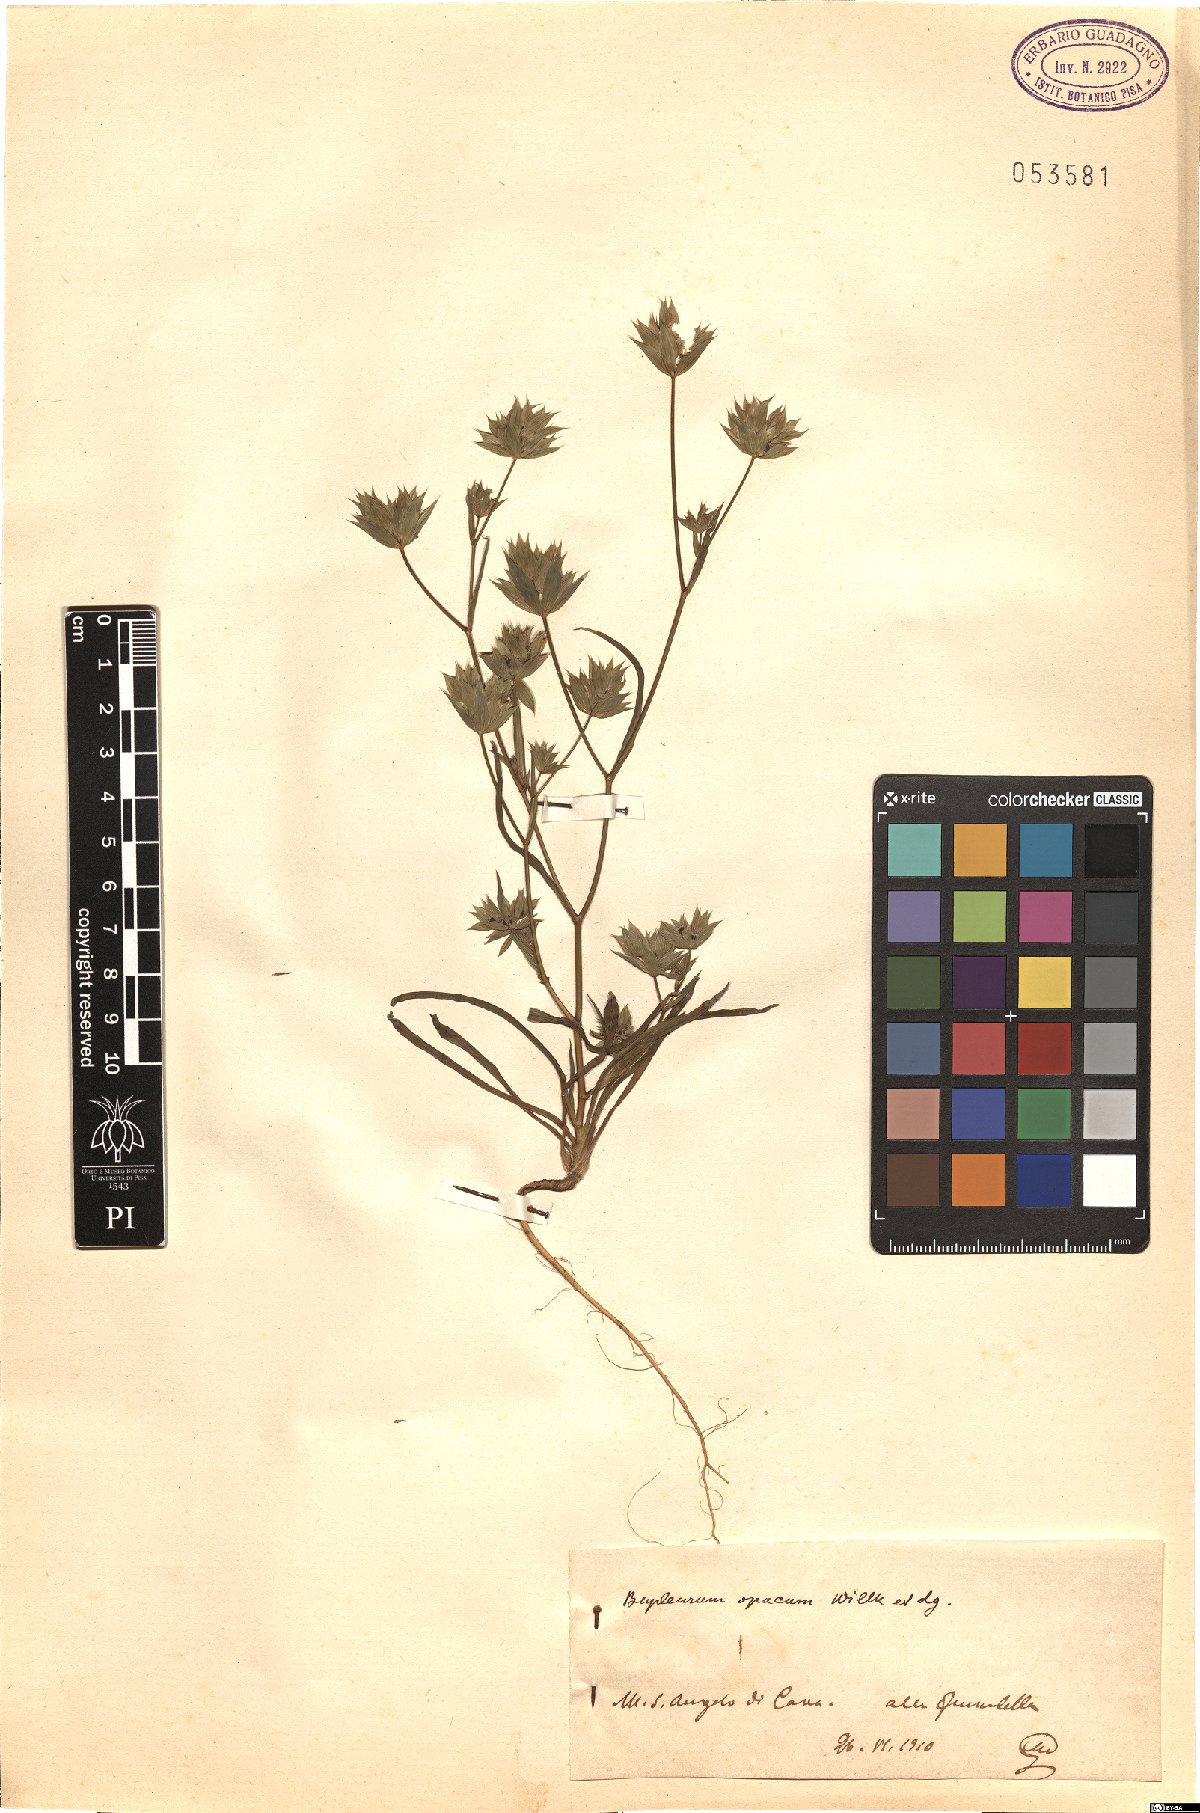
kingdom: Plantae
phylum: Tracheophyta
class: Magnoliopsida
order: Apiales
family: Apiaceae
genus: Bupleurum
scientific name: Bupleurum baldense
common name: Small hare's-ear
